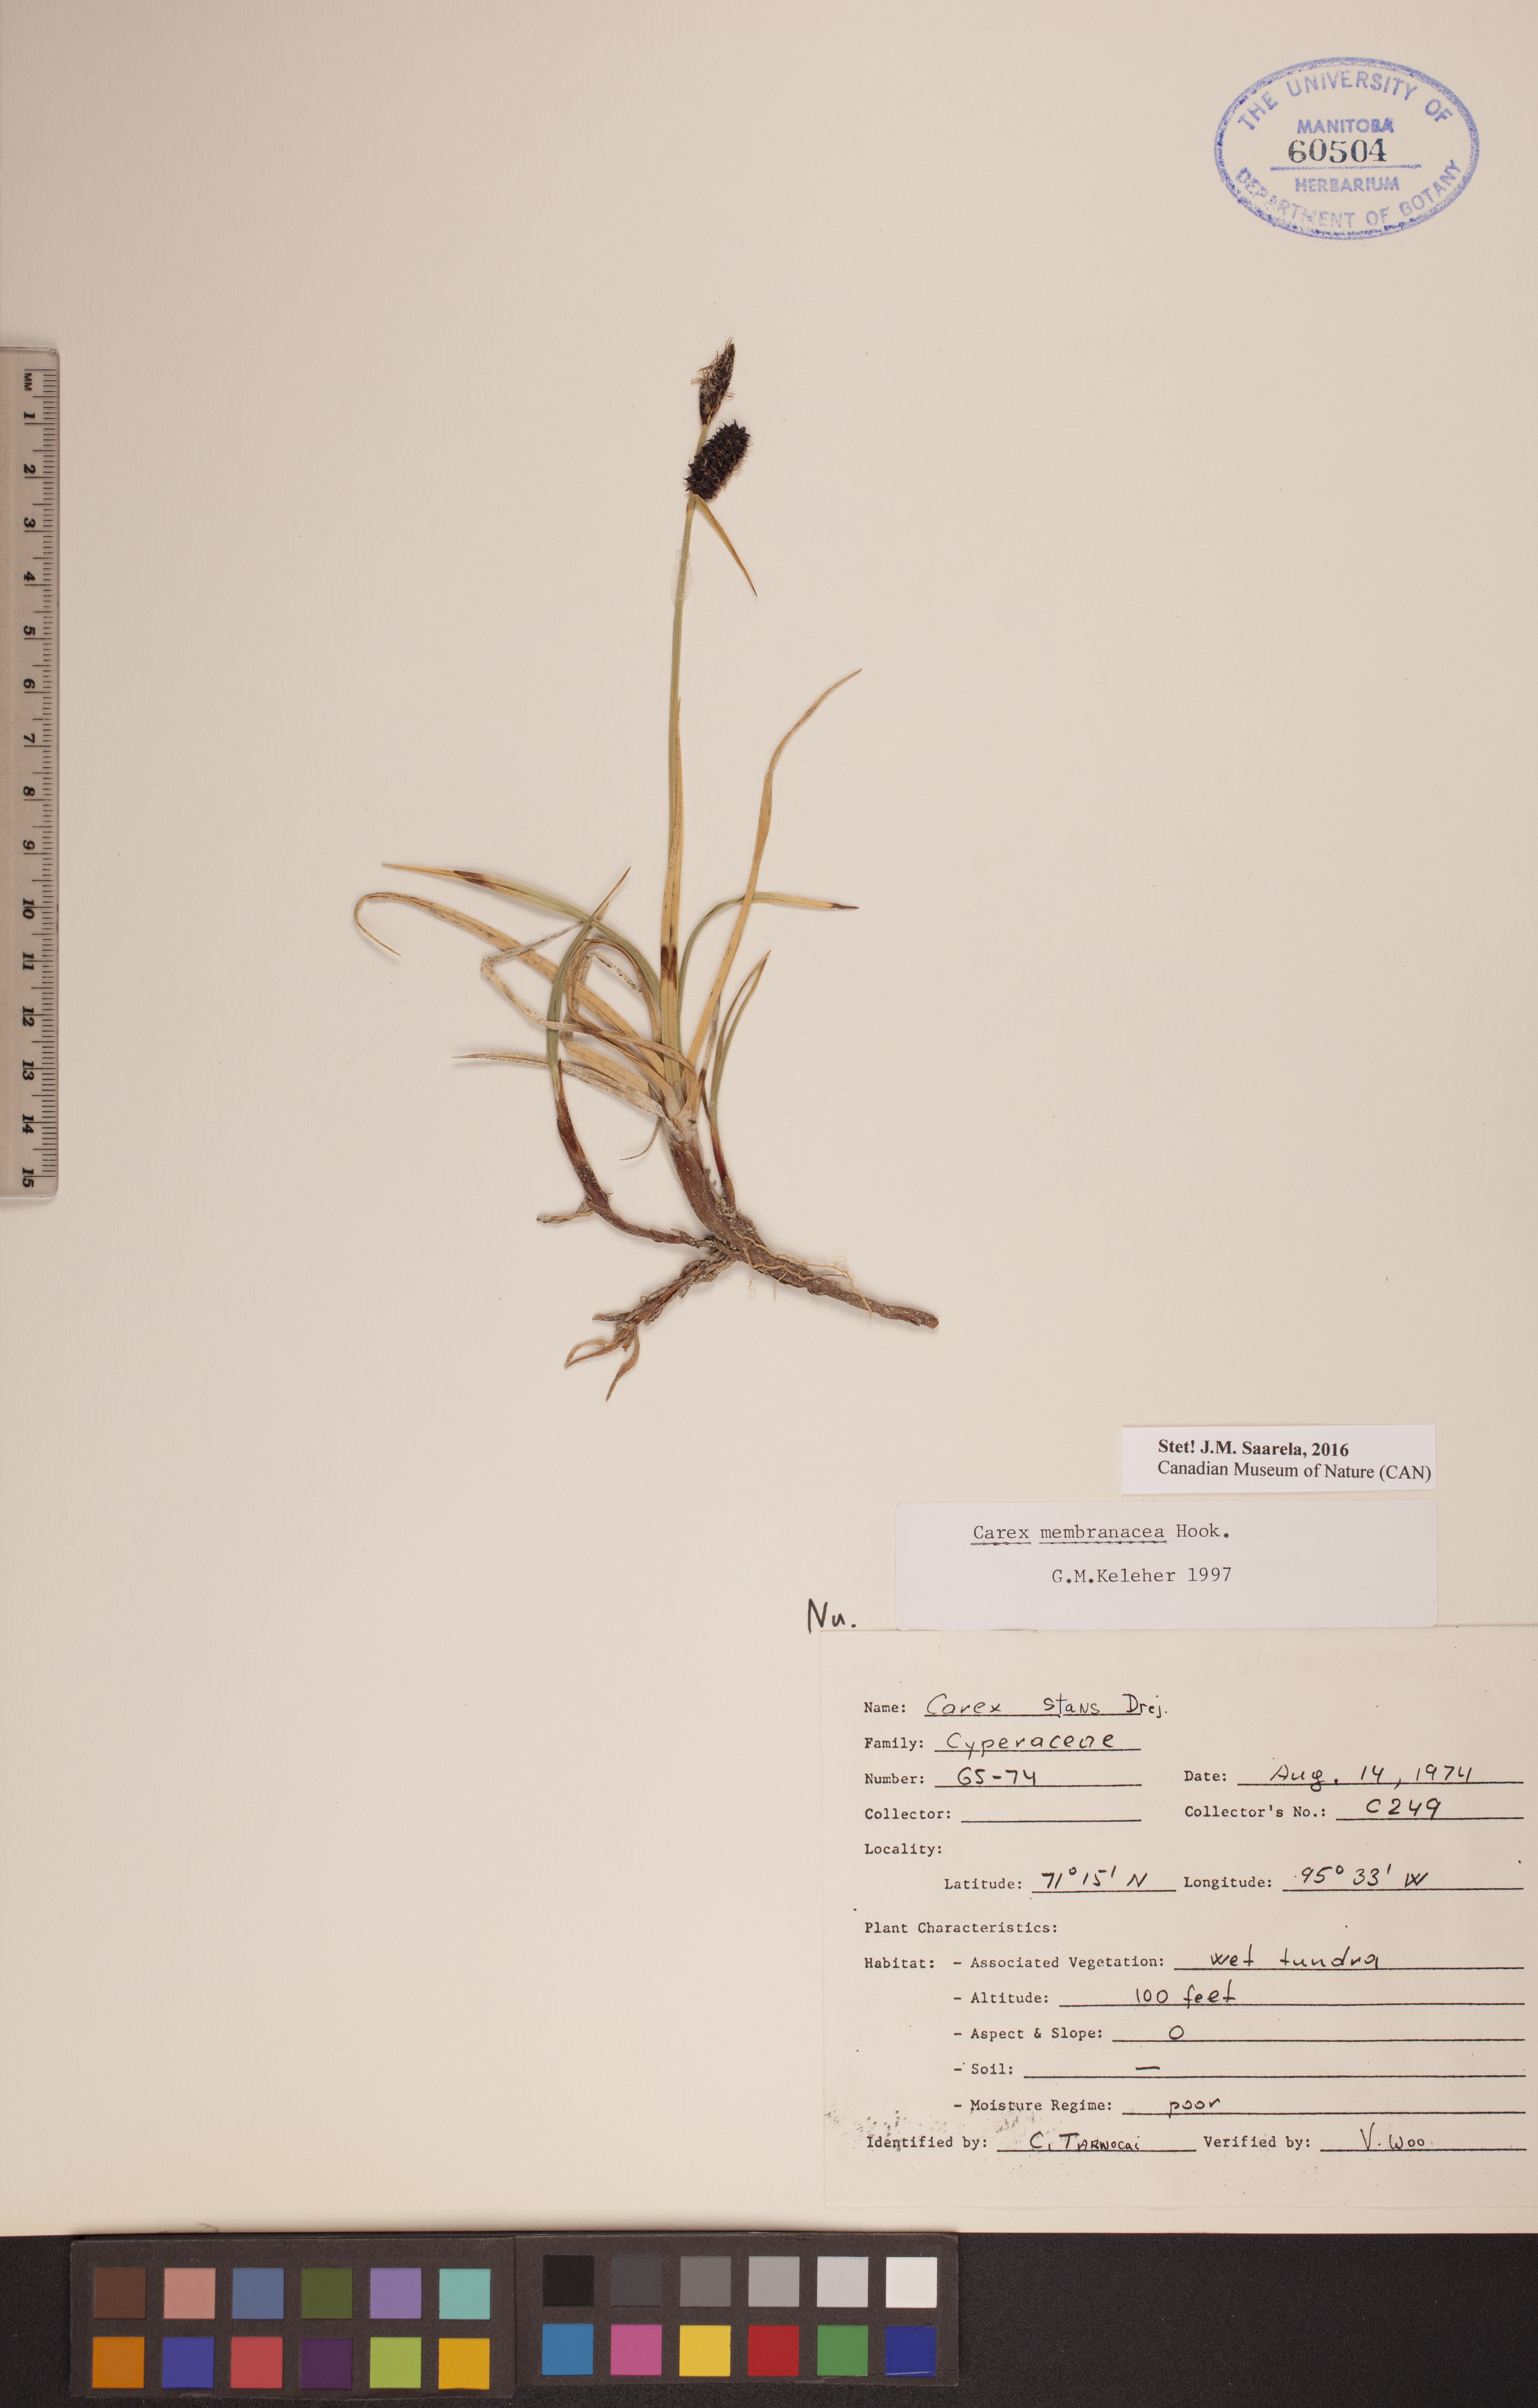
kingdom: Plantae
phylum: Tracheophyta
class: Liliopsida
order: Poales
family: Cyperaceae
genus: Carex
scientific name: Carex membranacea
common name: Fragile sedge
